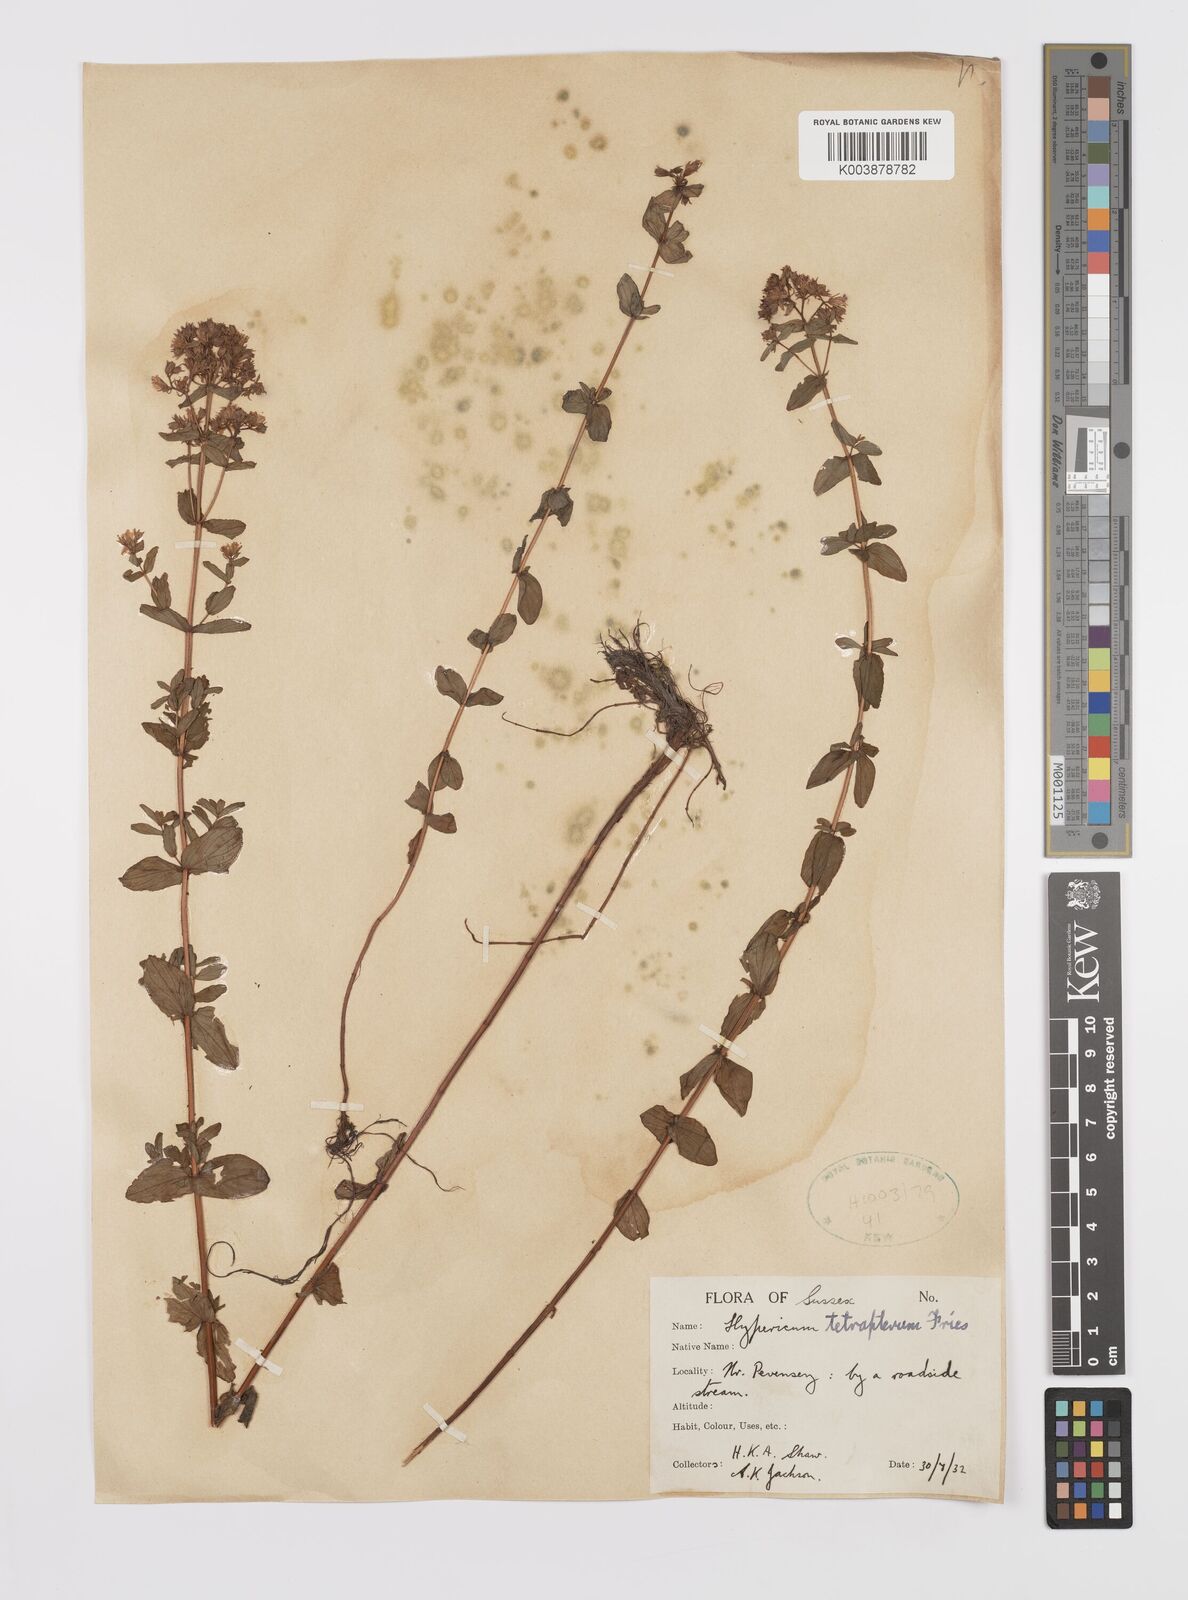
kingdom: Plantae
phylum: Tracheophyta
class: Magnoliopsida
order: Malpighiales
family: Hypericaceae
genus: Hypericum
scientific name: Hypericum tetrapterum
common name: Square-stalked st. john's-wort
